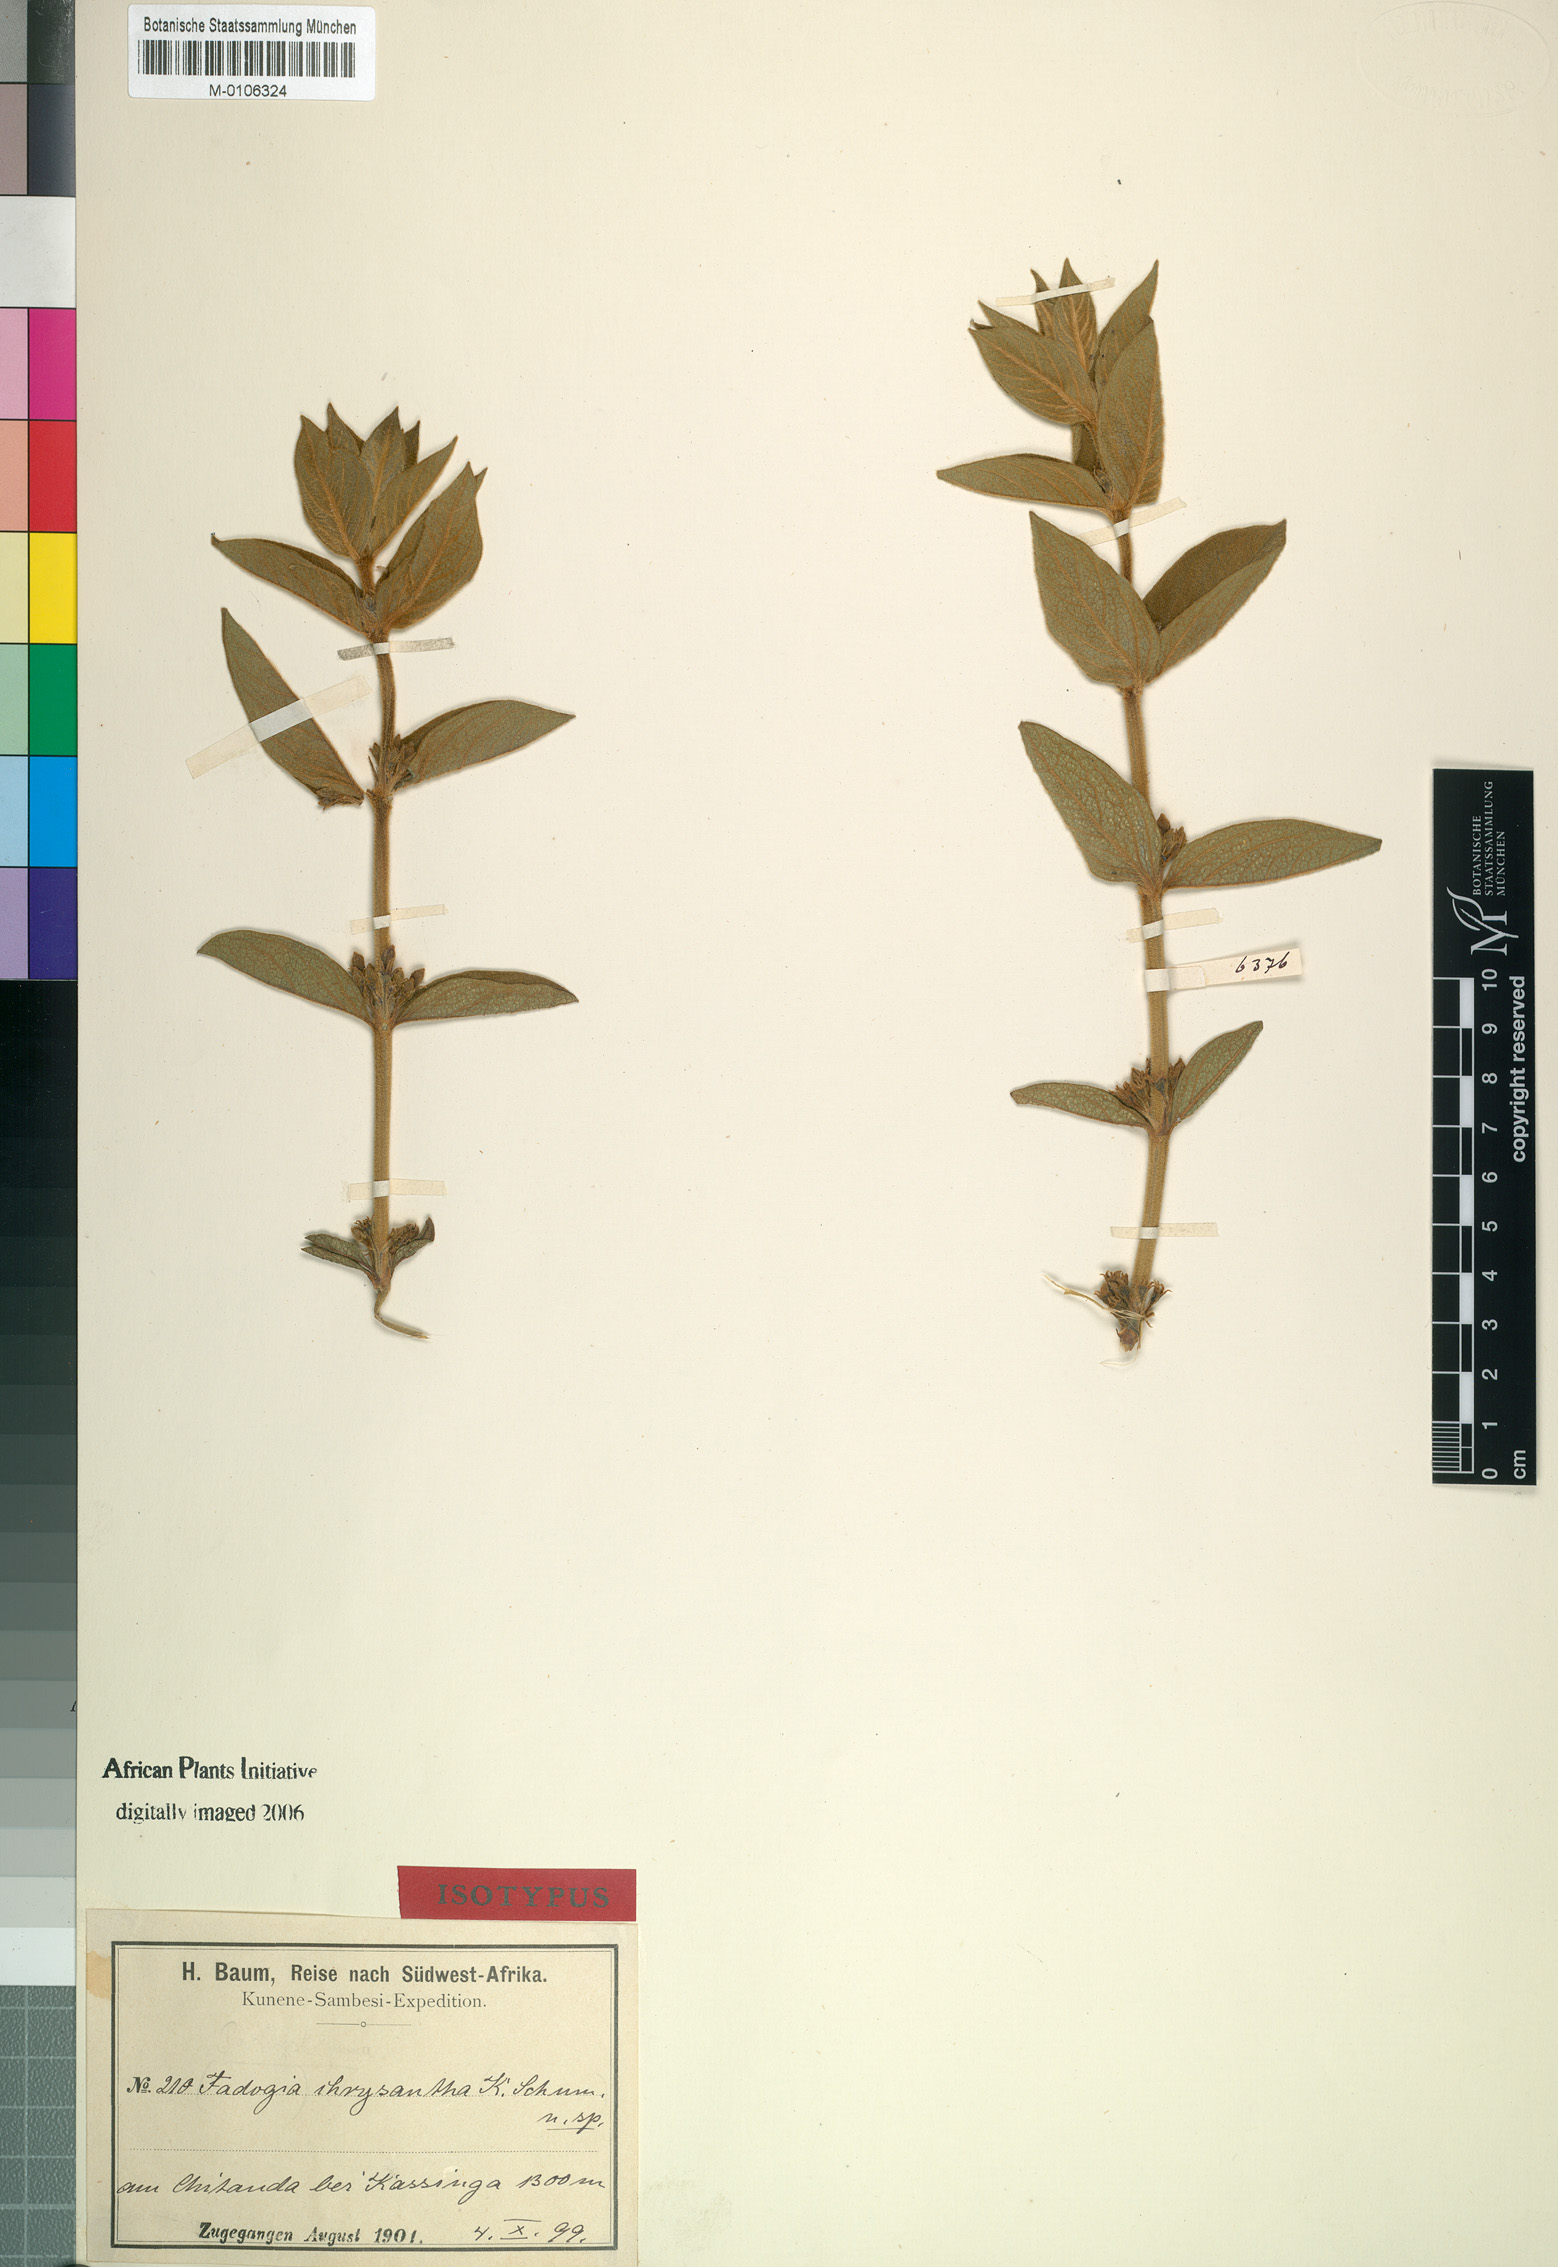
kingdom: Plantae
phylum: Tracheophyta
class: Magnoliopsida
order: Gentianales
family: Rubiaceae
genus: Fadogia
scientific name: Fadogia chrysantha
